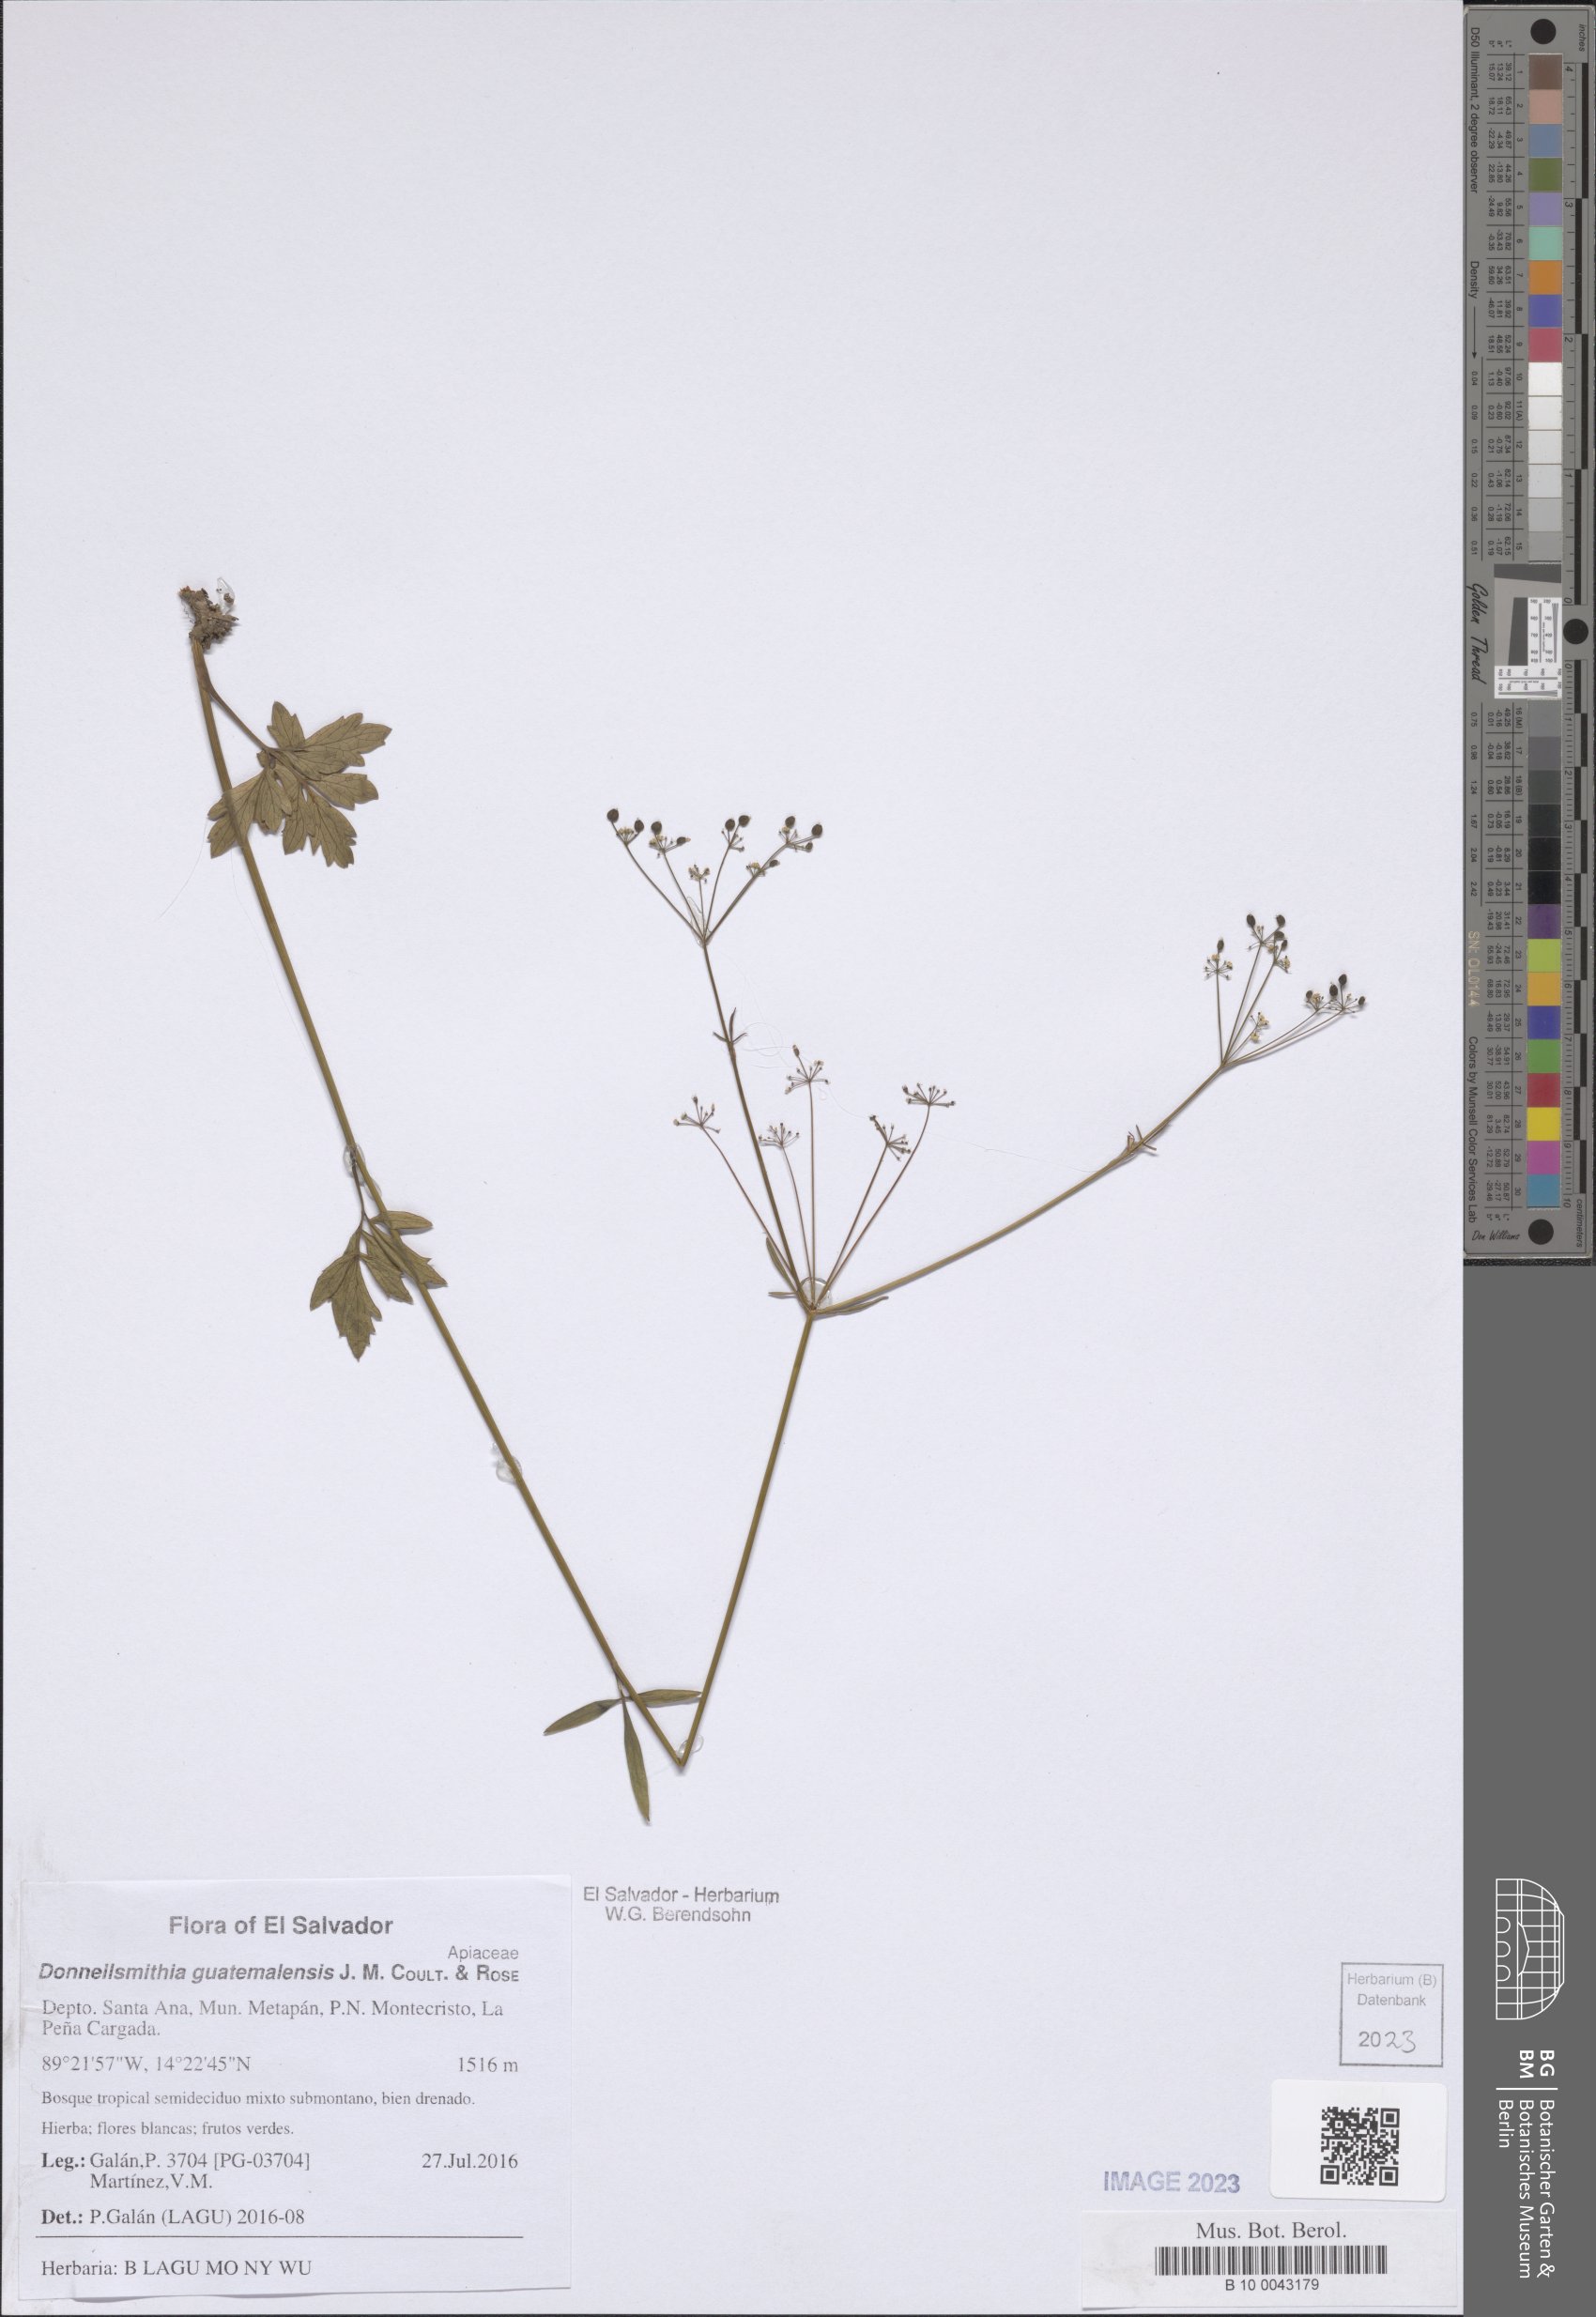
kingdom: Plantae
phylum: Tracheophyta
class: Magnoliopsida
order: Apiales
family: Apiaceae
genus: Donnellsmithia
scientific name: Donnellsmithia guatemalensis
